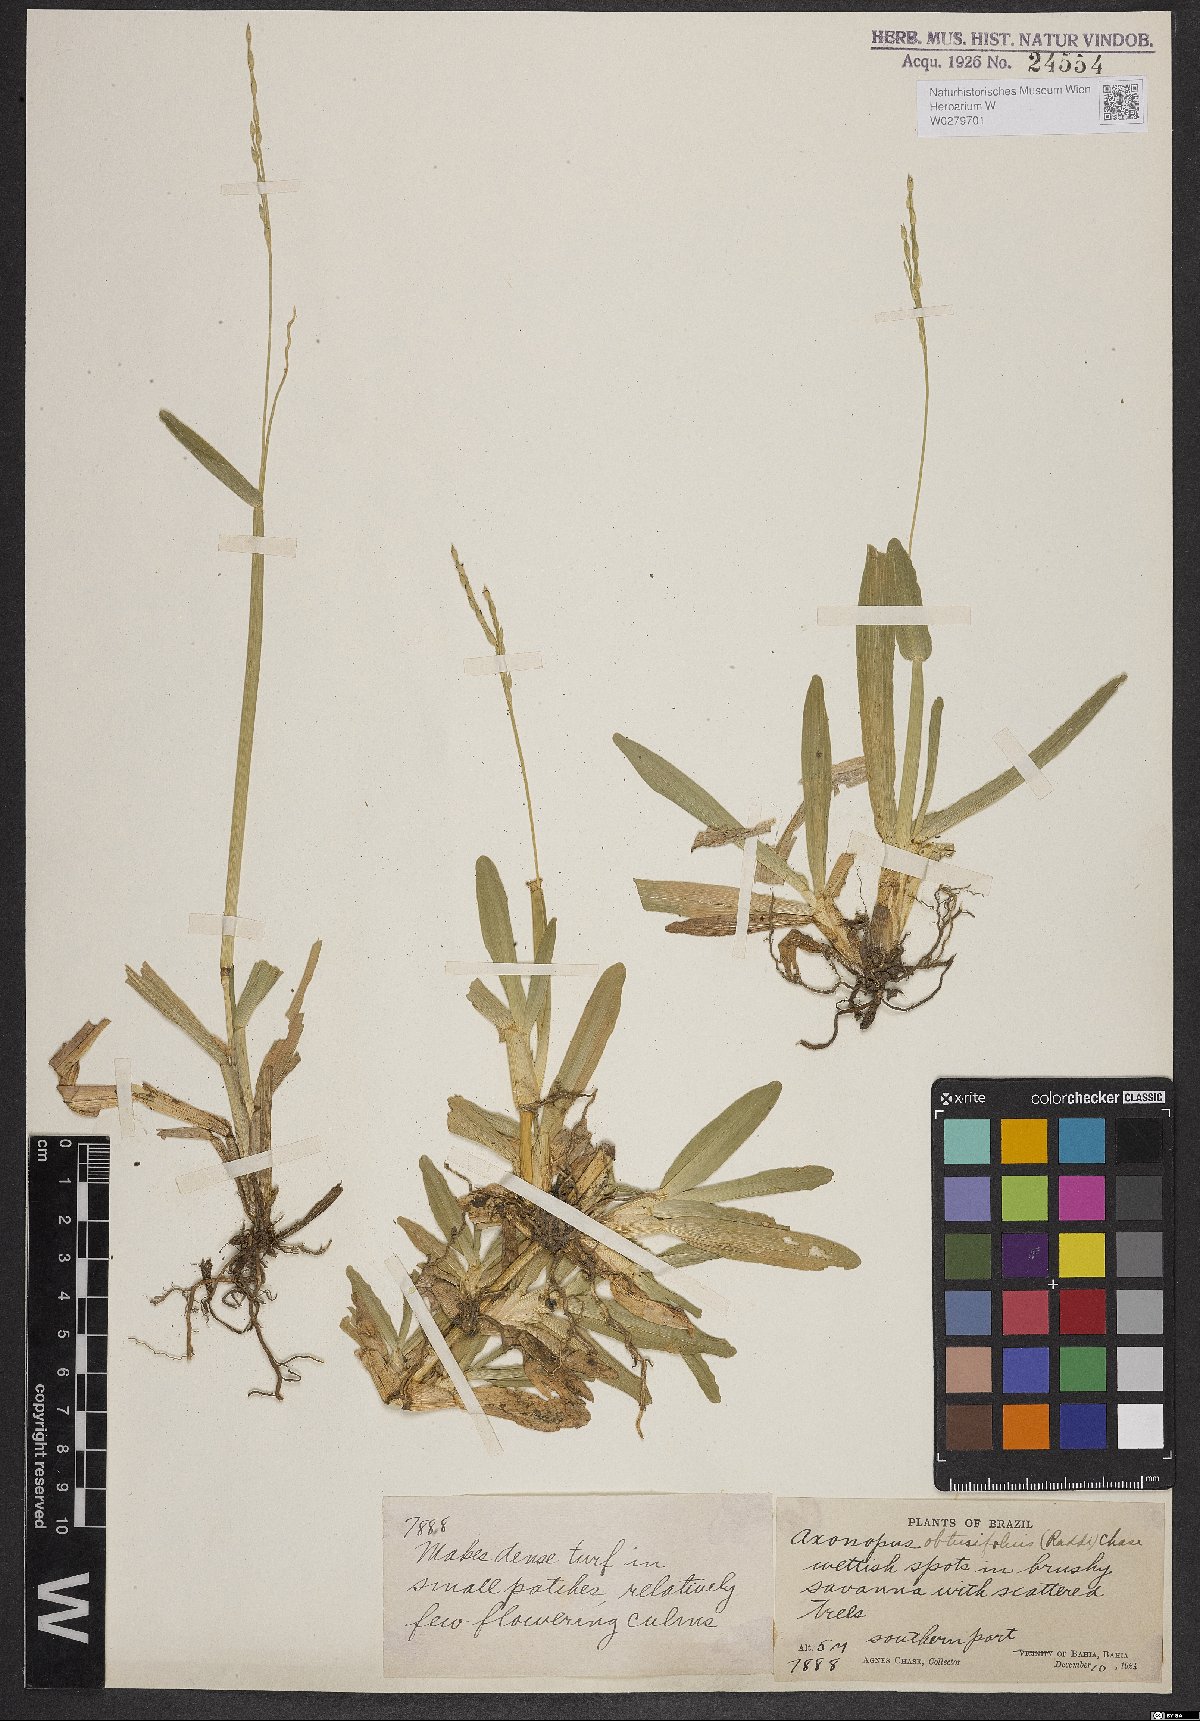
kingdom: Plantae
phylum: Tracheophyta
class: Liliopsida
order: Poales
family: Poaceae
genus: Axonopus
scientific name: Axonopus furcatus
